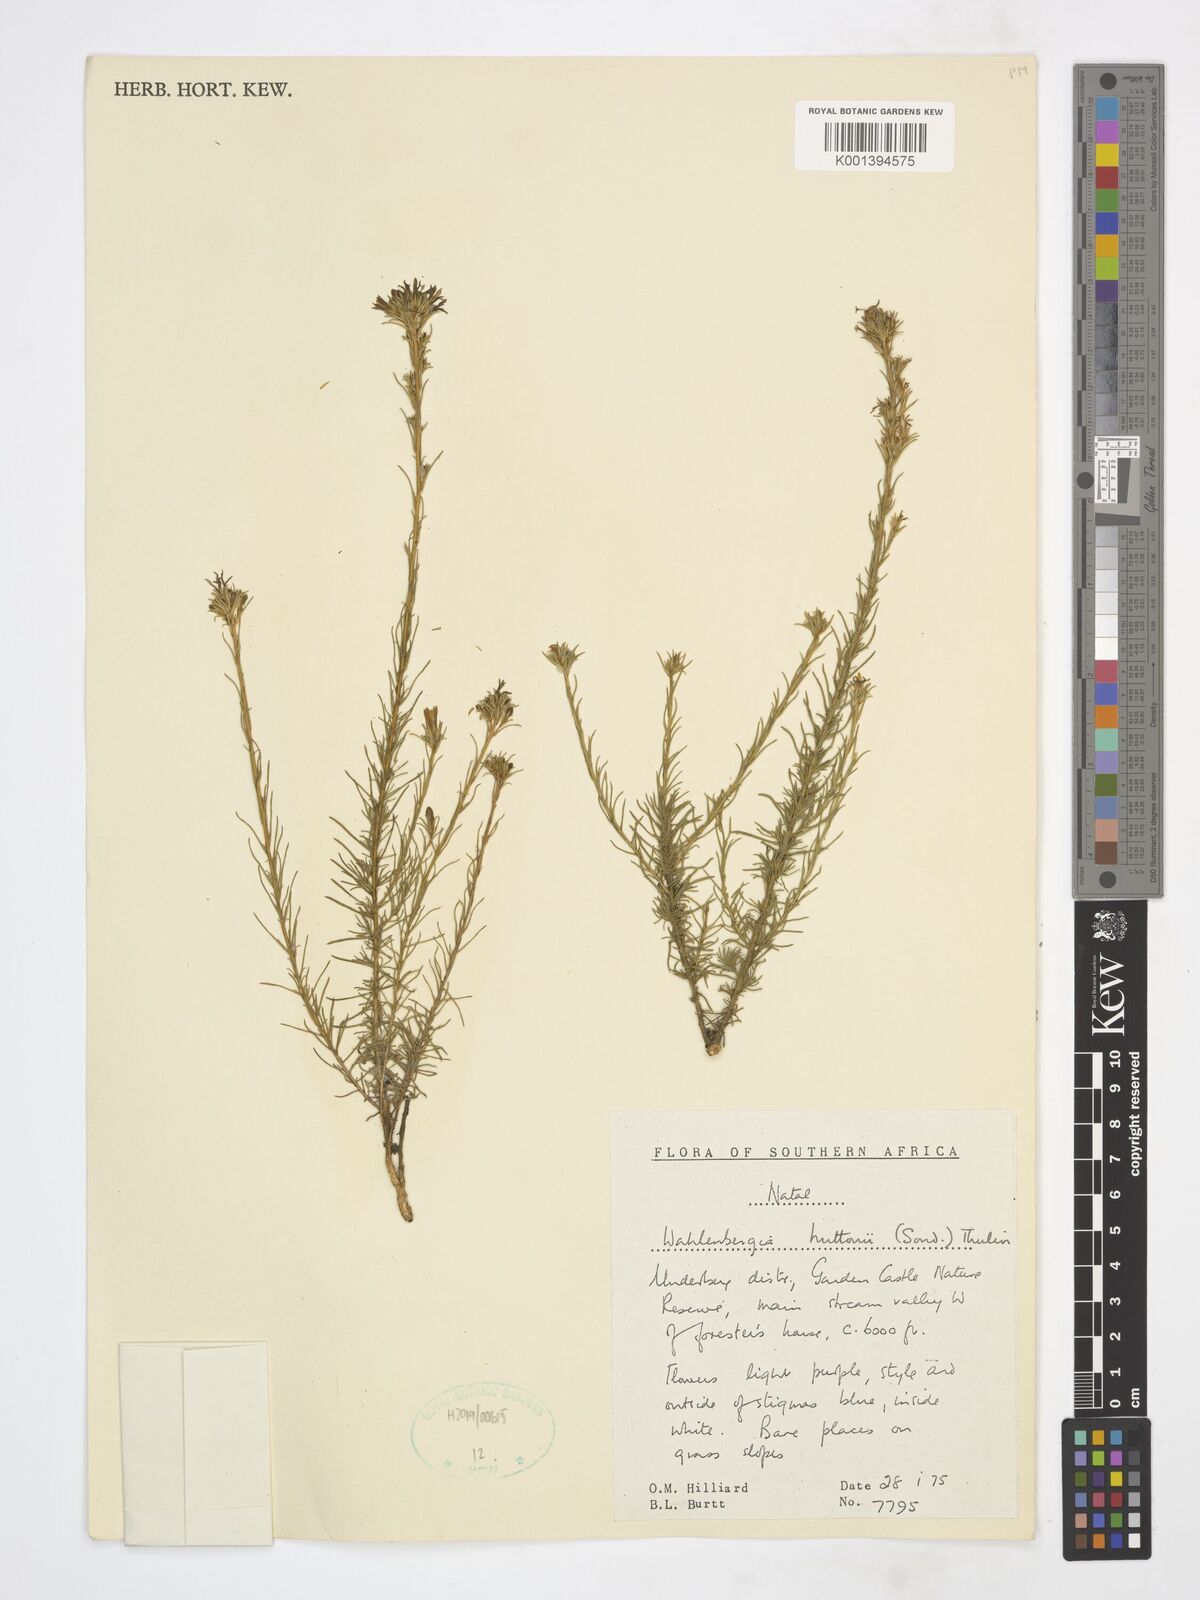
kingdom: Plantae
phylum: Tracheophyta
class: Magnoliopsida
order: Asterales
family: Campanulaceae
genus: Wahlenbergia
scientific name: Wahlenbergia huttonii
